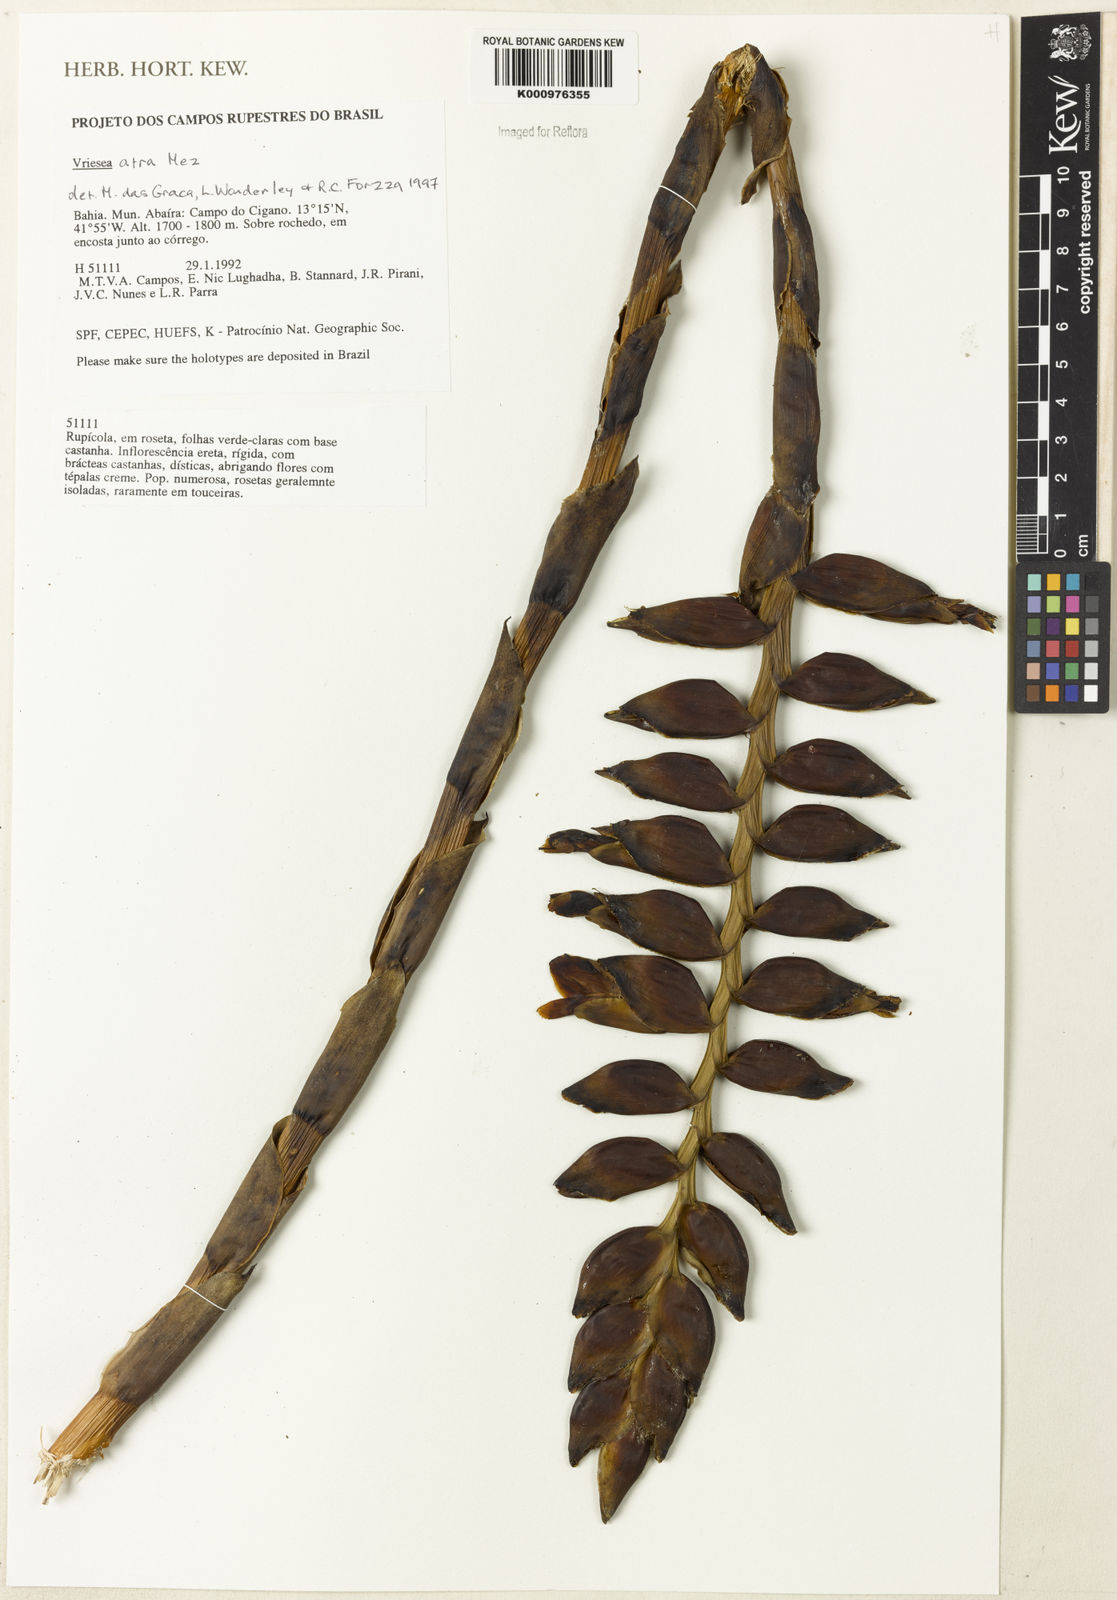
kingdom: Plantae
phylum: Tracheophyta
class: Liliopsida
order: Poales
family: Bromeliaceae
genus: Vriesea
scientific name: Vriesea atra
